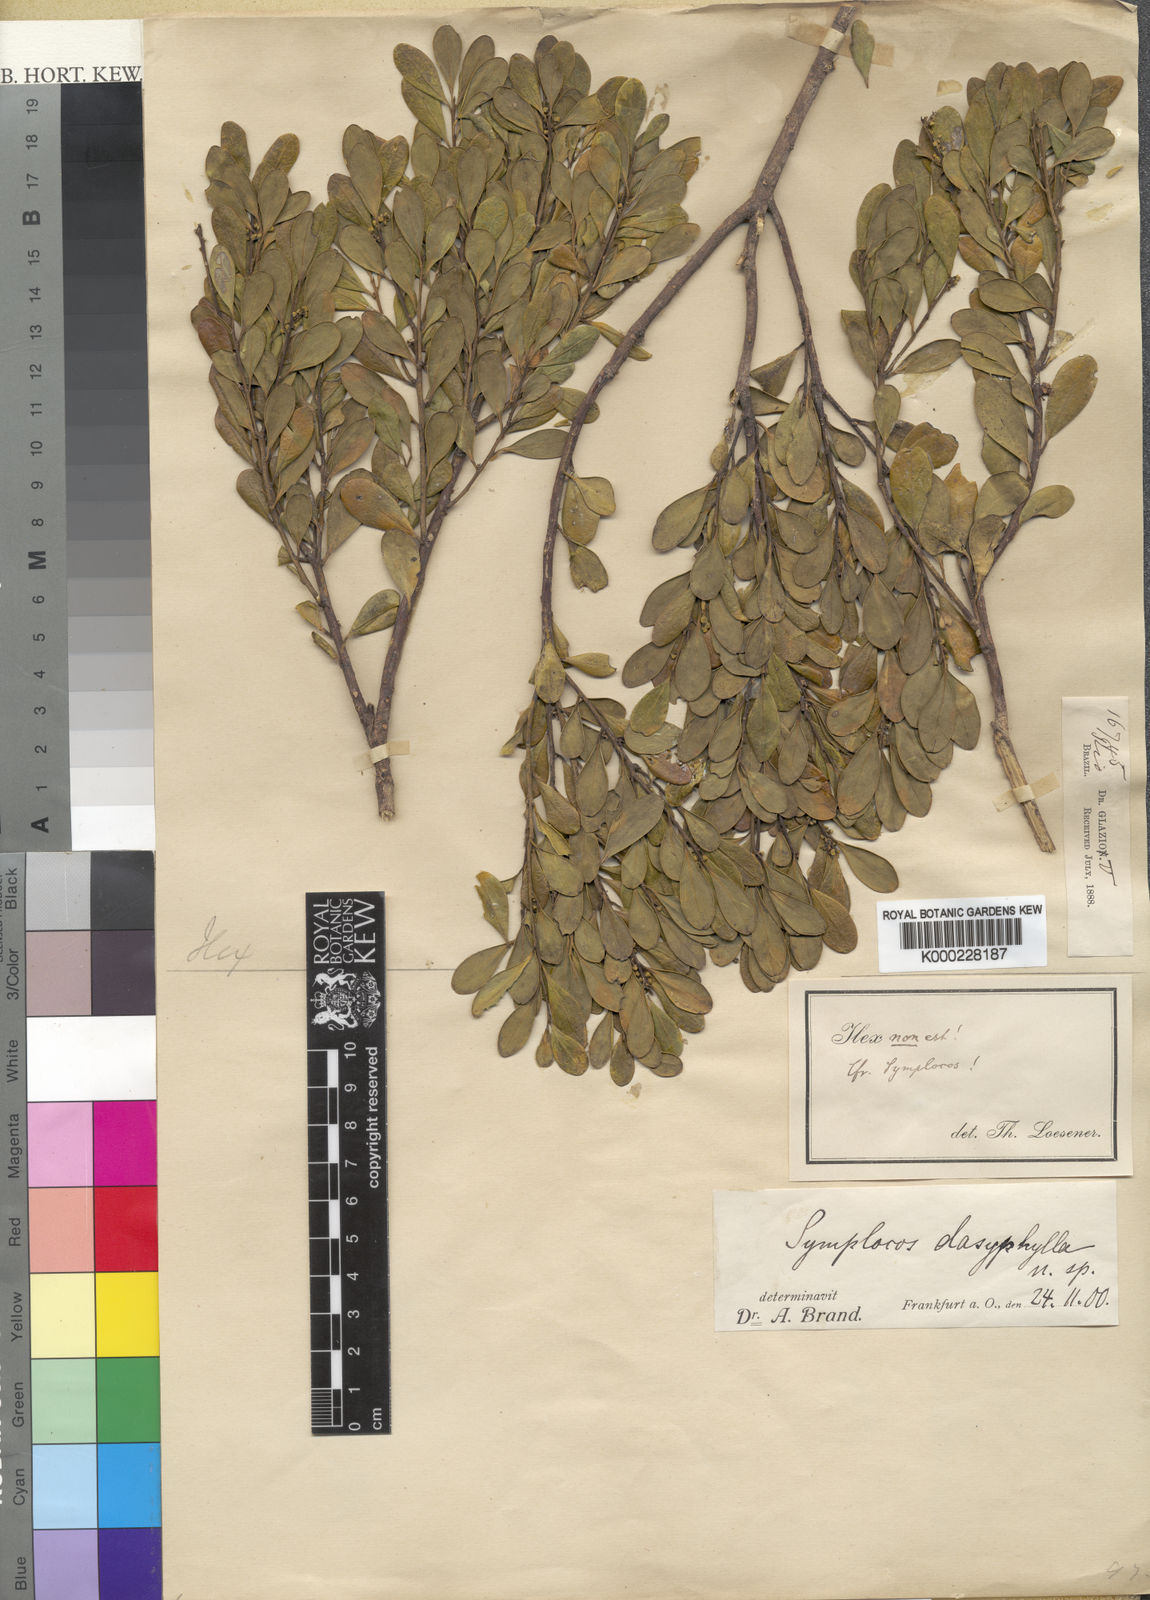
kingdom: Plantae
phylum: Tracheophyta
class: Magnoliopsida
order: Ericales
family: Symplocaceae
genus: Symplocos
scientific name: Symplocos dasyphylla
